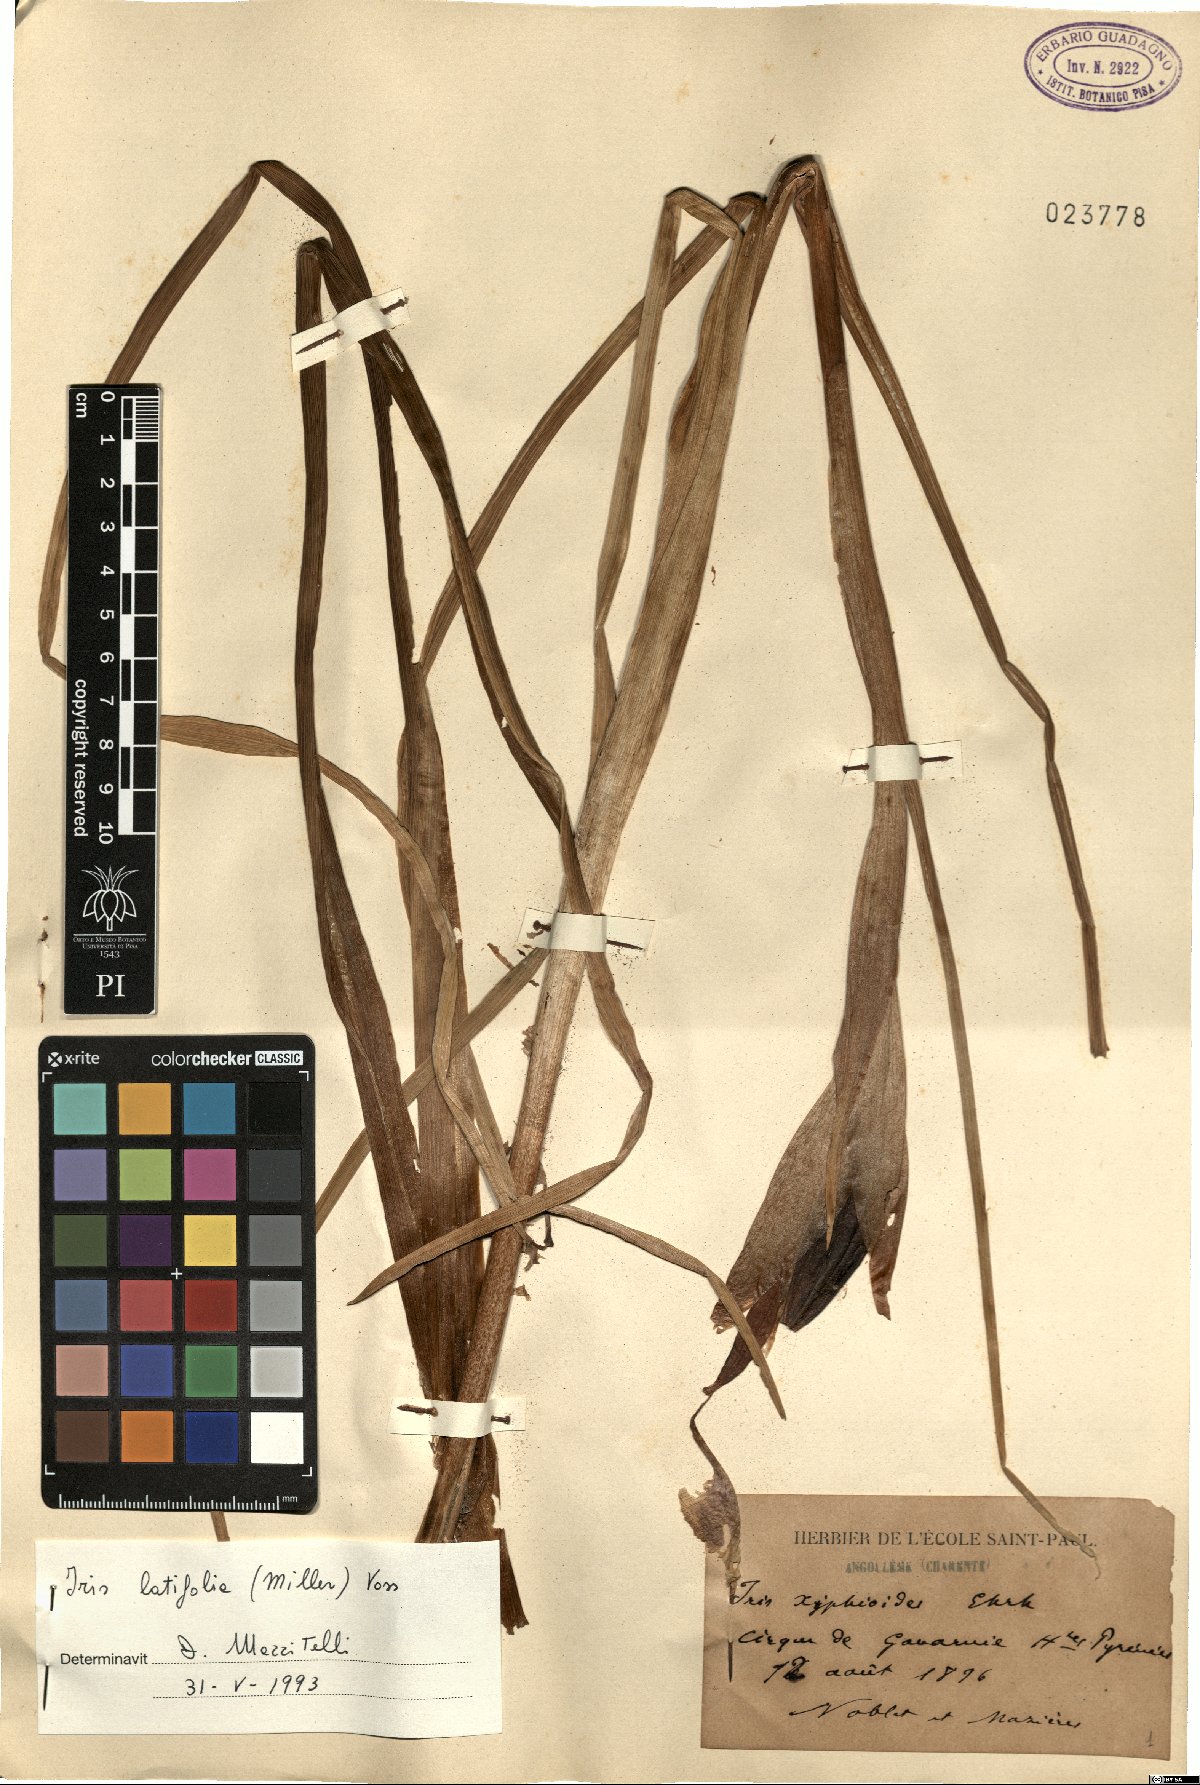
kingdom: Plantae
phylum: Tracheophyta
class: Liliopsida
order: Asparagales
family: Iridaceae
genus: Iris
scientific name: Iris jacquinii
